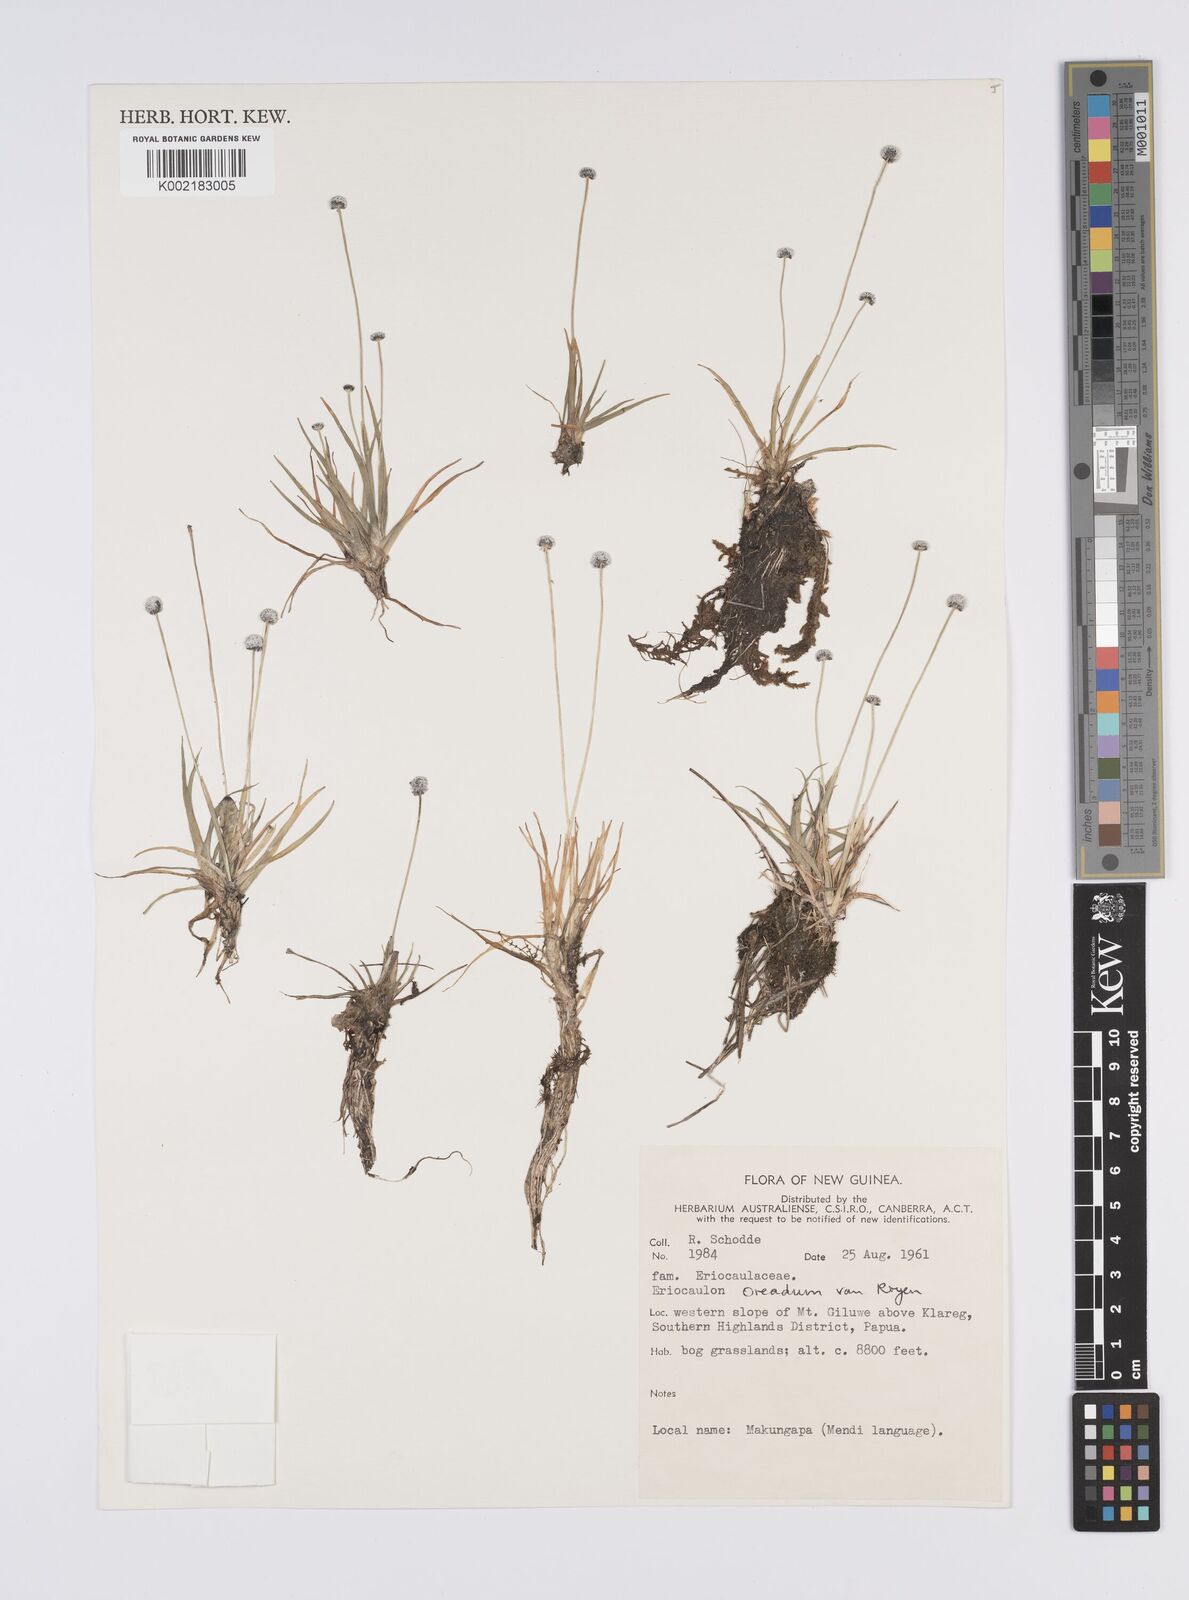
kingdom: Plantae
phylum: Tracheophyta
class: Liliopsida
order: Poales
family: Eriocaulaceae
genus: Eriocaulon
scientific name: Eriocaulon oreadum
